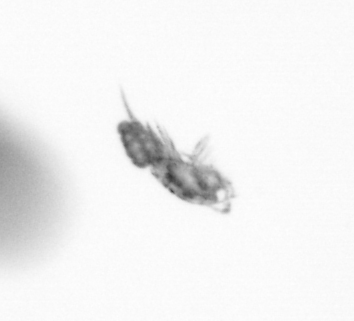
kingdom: Animalia
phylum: Arthropoda
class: Copepoda
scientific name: Copepoda
